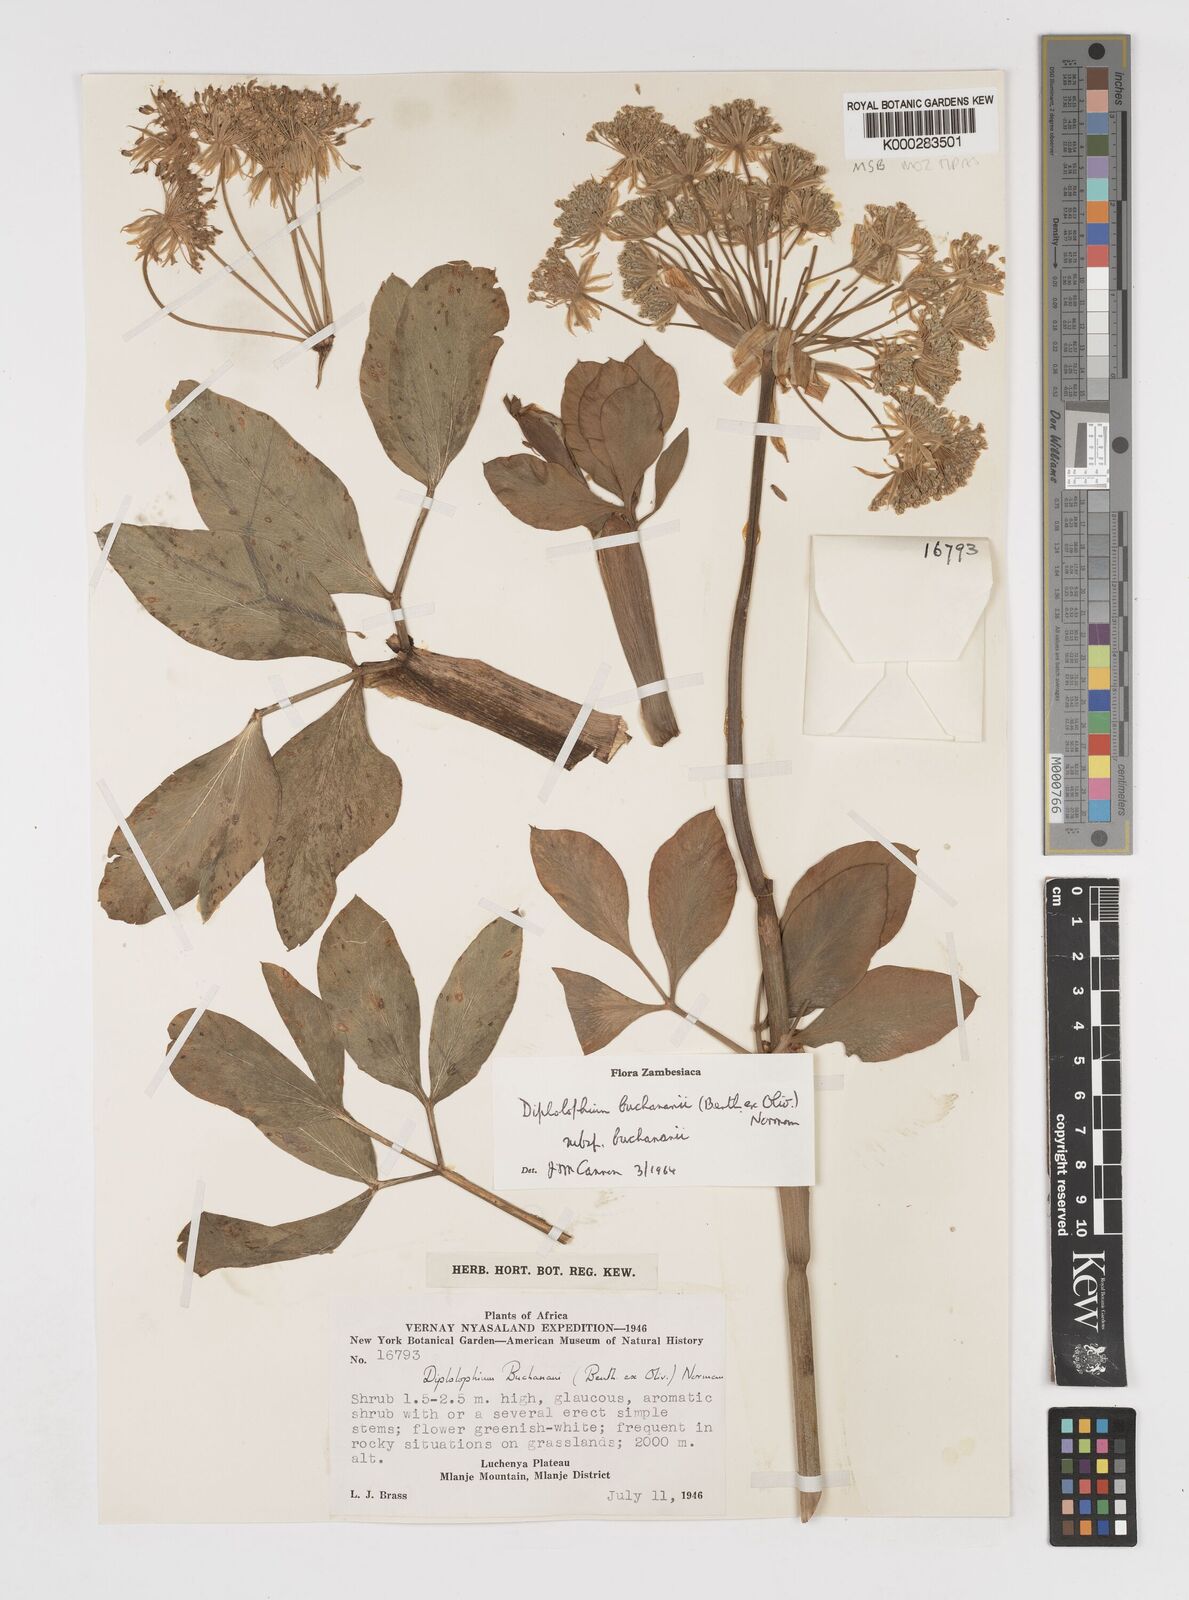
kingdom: Plantae
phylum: Tracheophyta
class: Magnoliopsida
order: Apiales
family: Apiaceae
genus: Diplolophium
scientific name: Diplolophium buchananii
